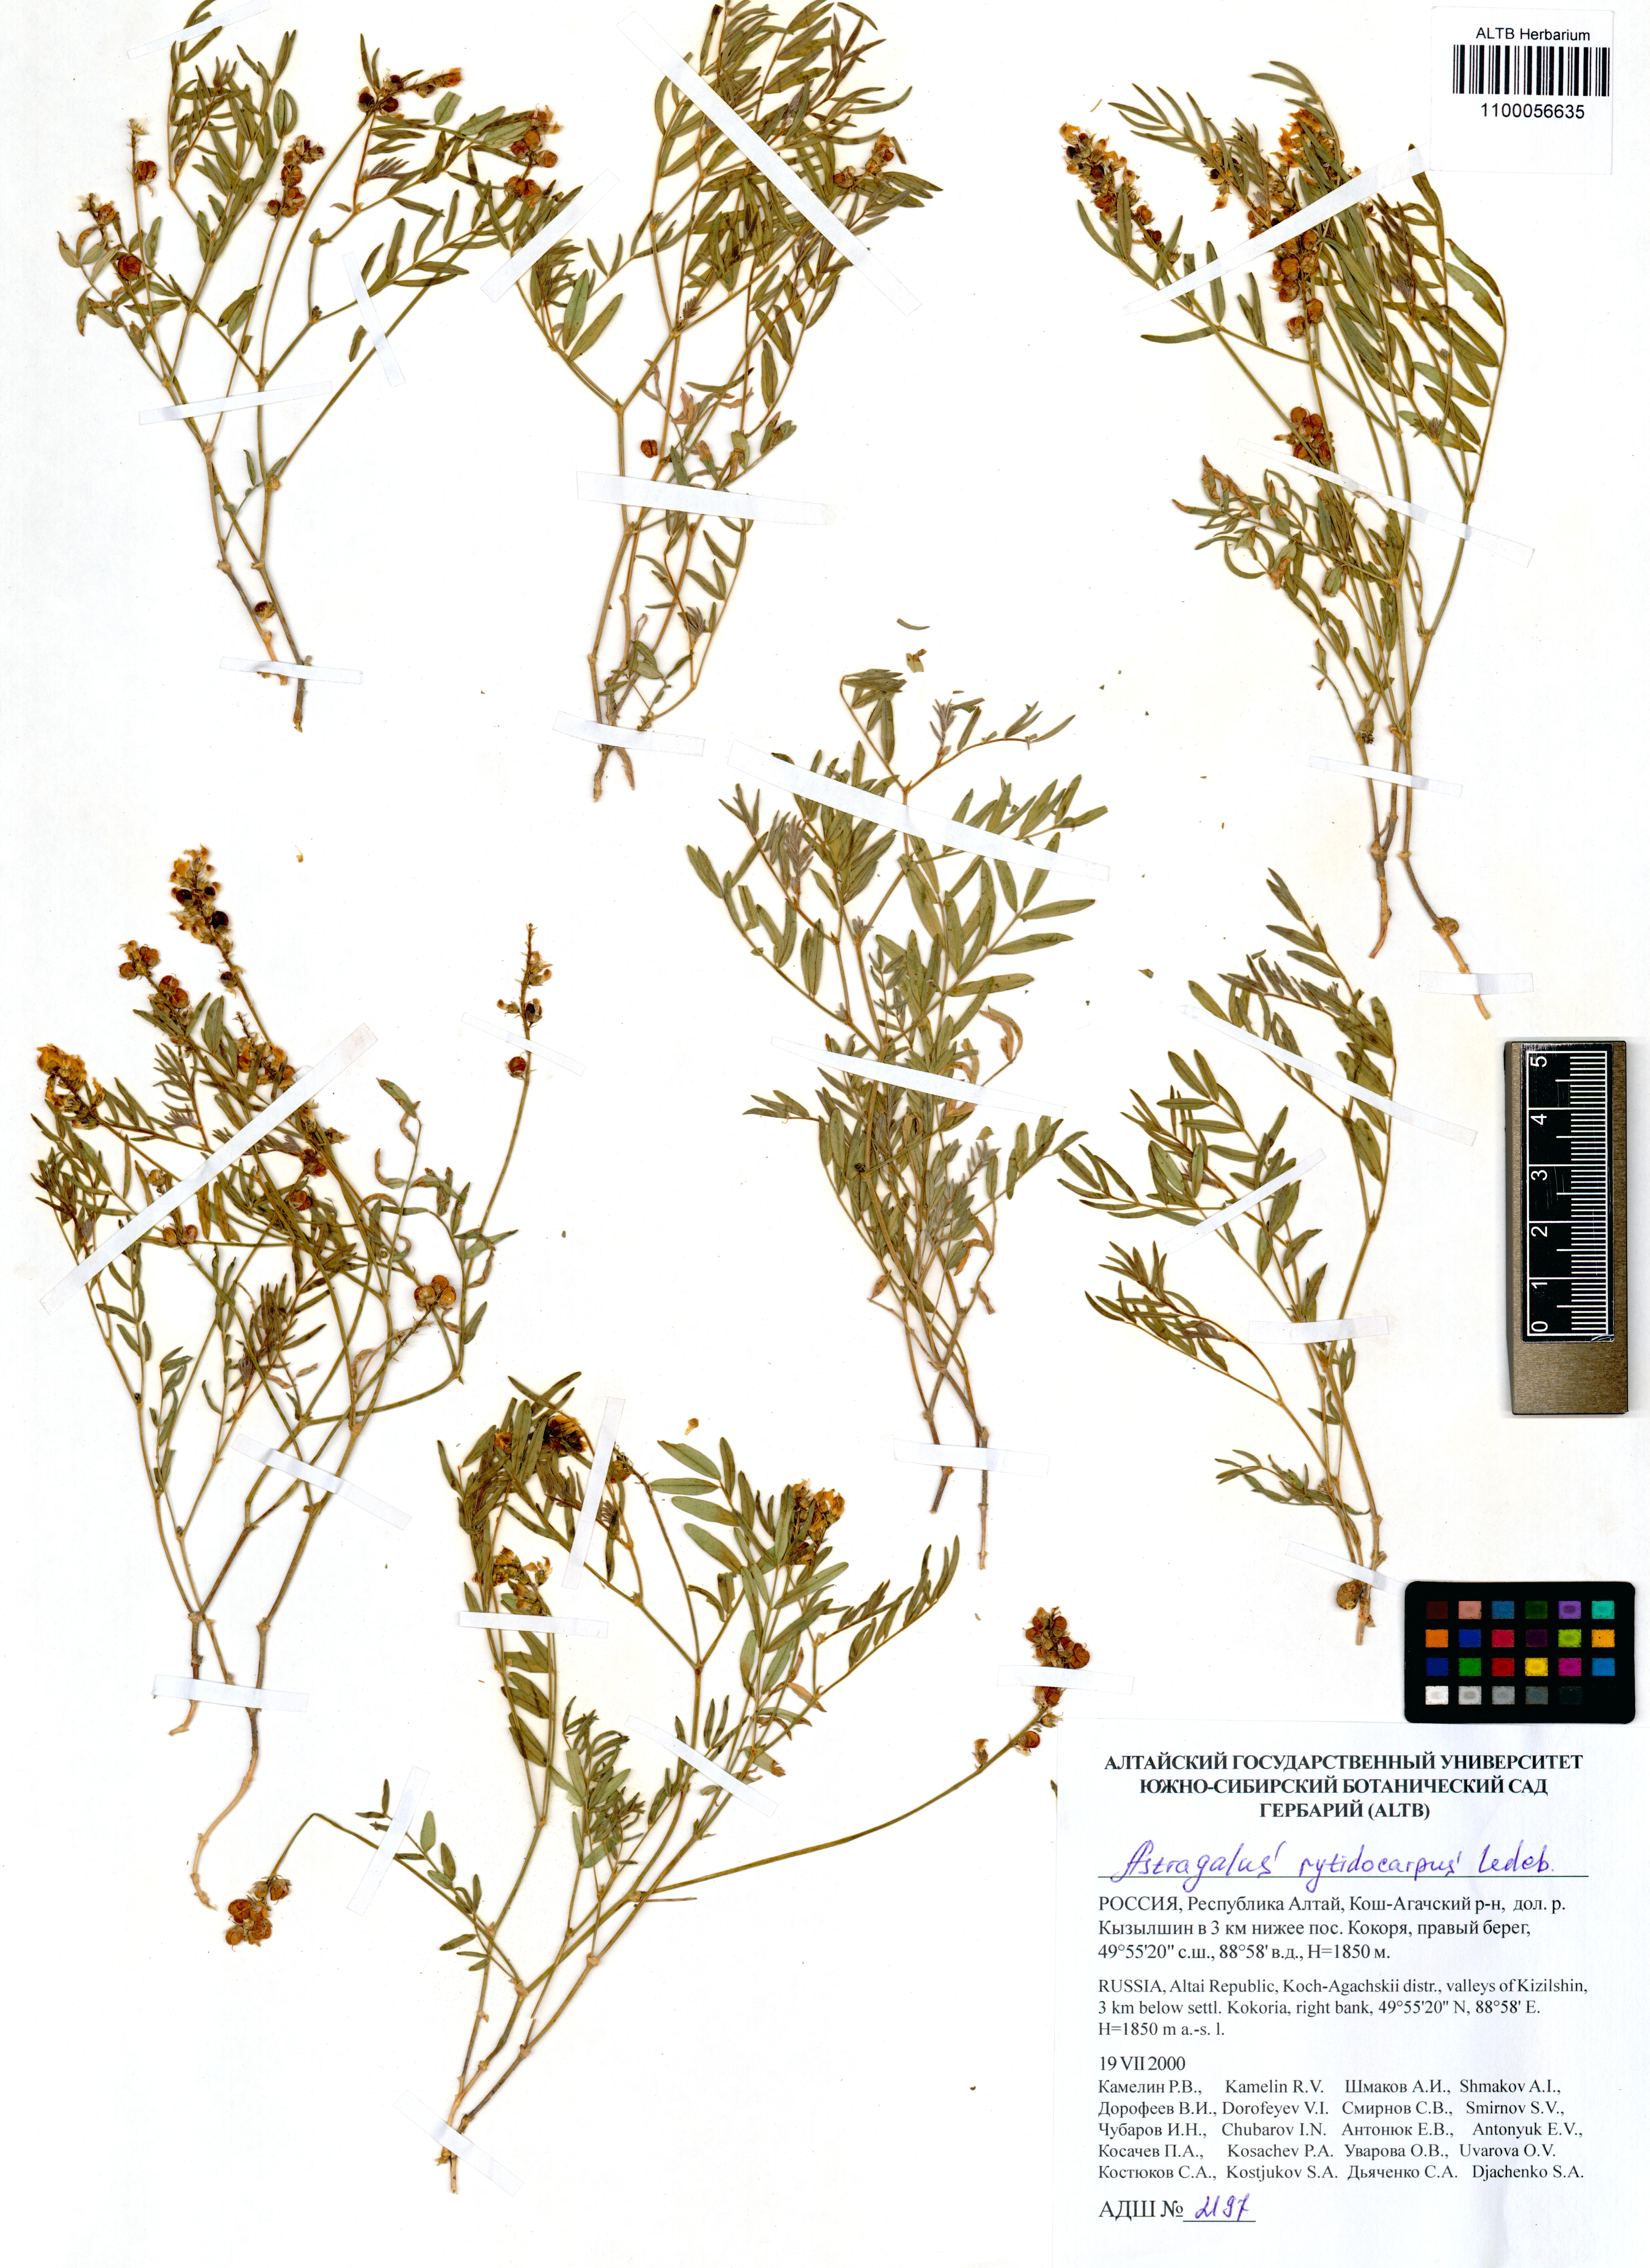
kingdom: Plantae
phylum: Tracheophyta
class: Magnoliopsida
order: Fabales
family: Fabaceae
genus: Astragalus
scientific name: Astragalus rytidocarpus
